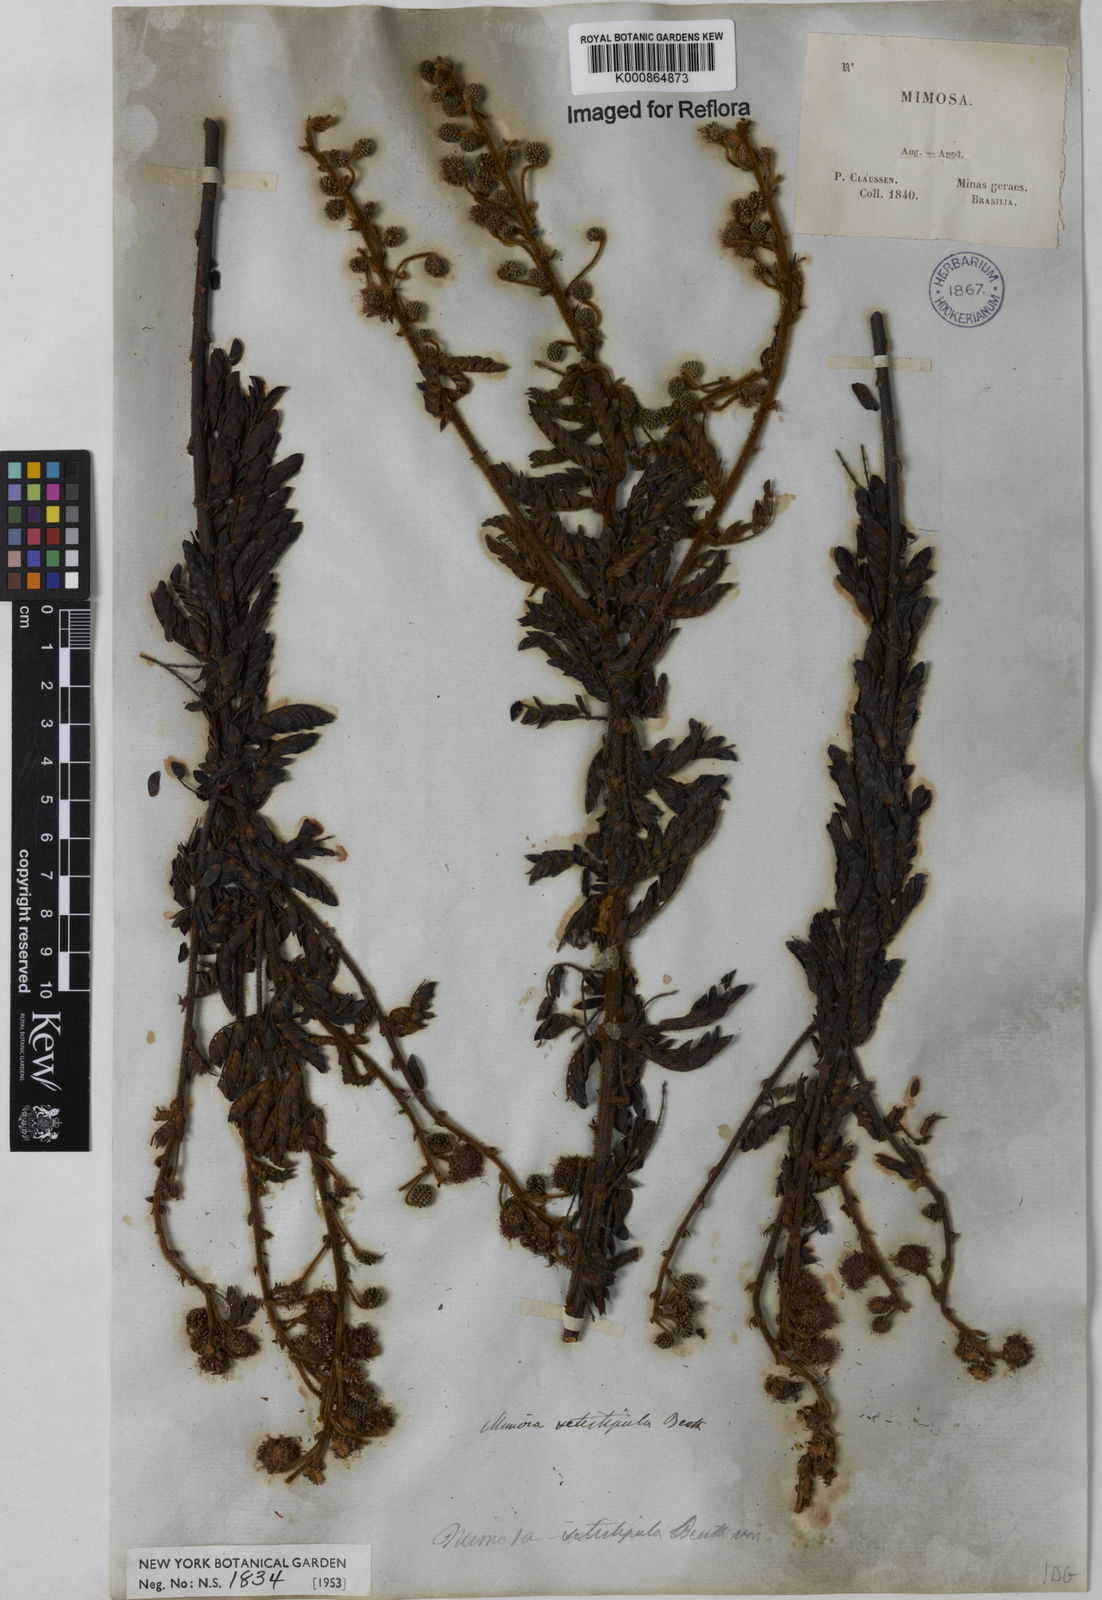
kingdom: Plantae
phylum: Tracheophyta
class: Magnoliopsida
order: Fabales
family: Fabaceae
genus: Mimosa
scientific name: Mimosa setistipula
